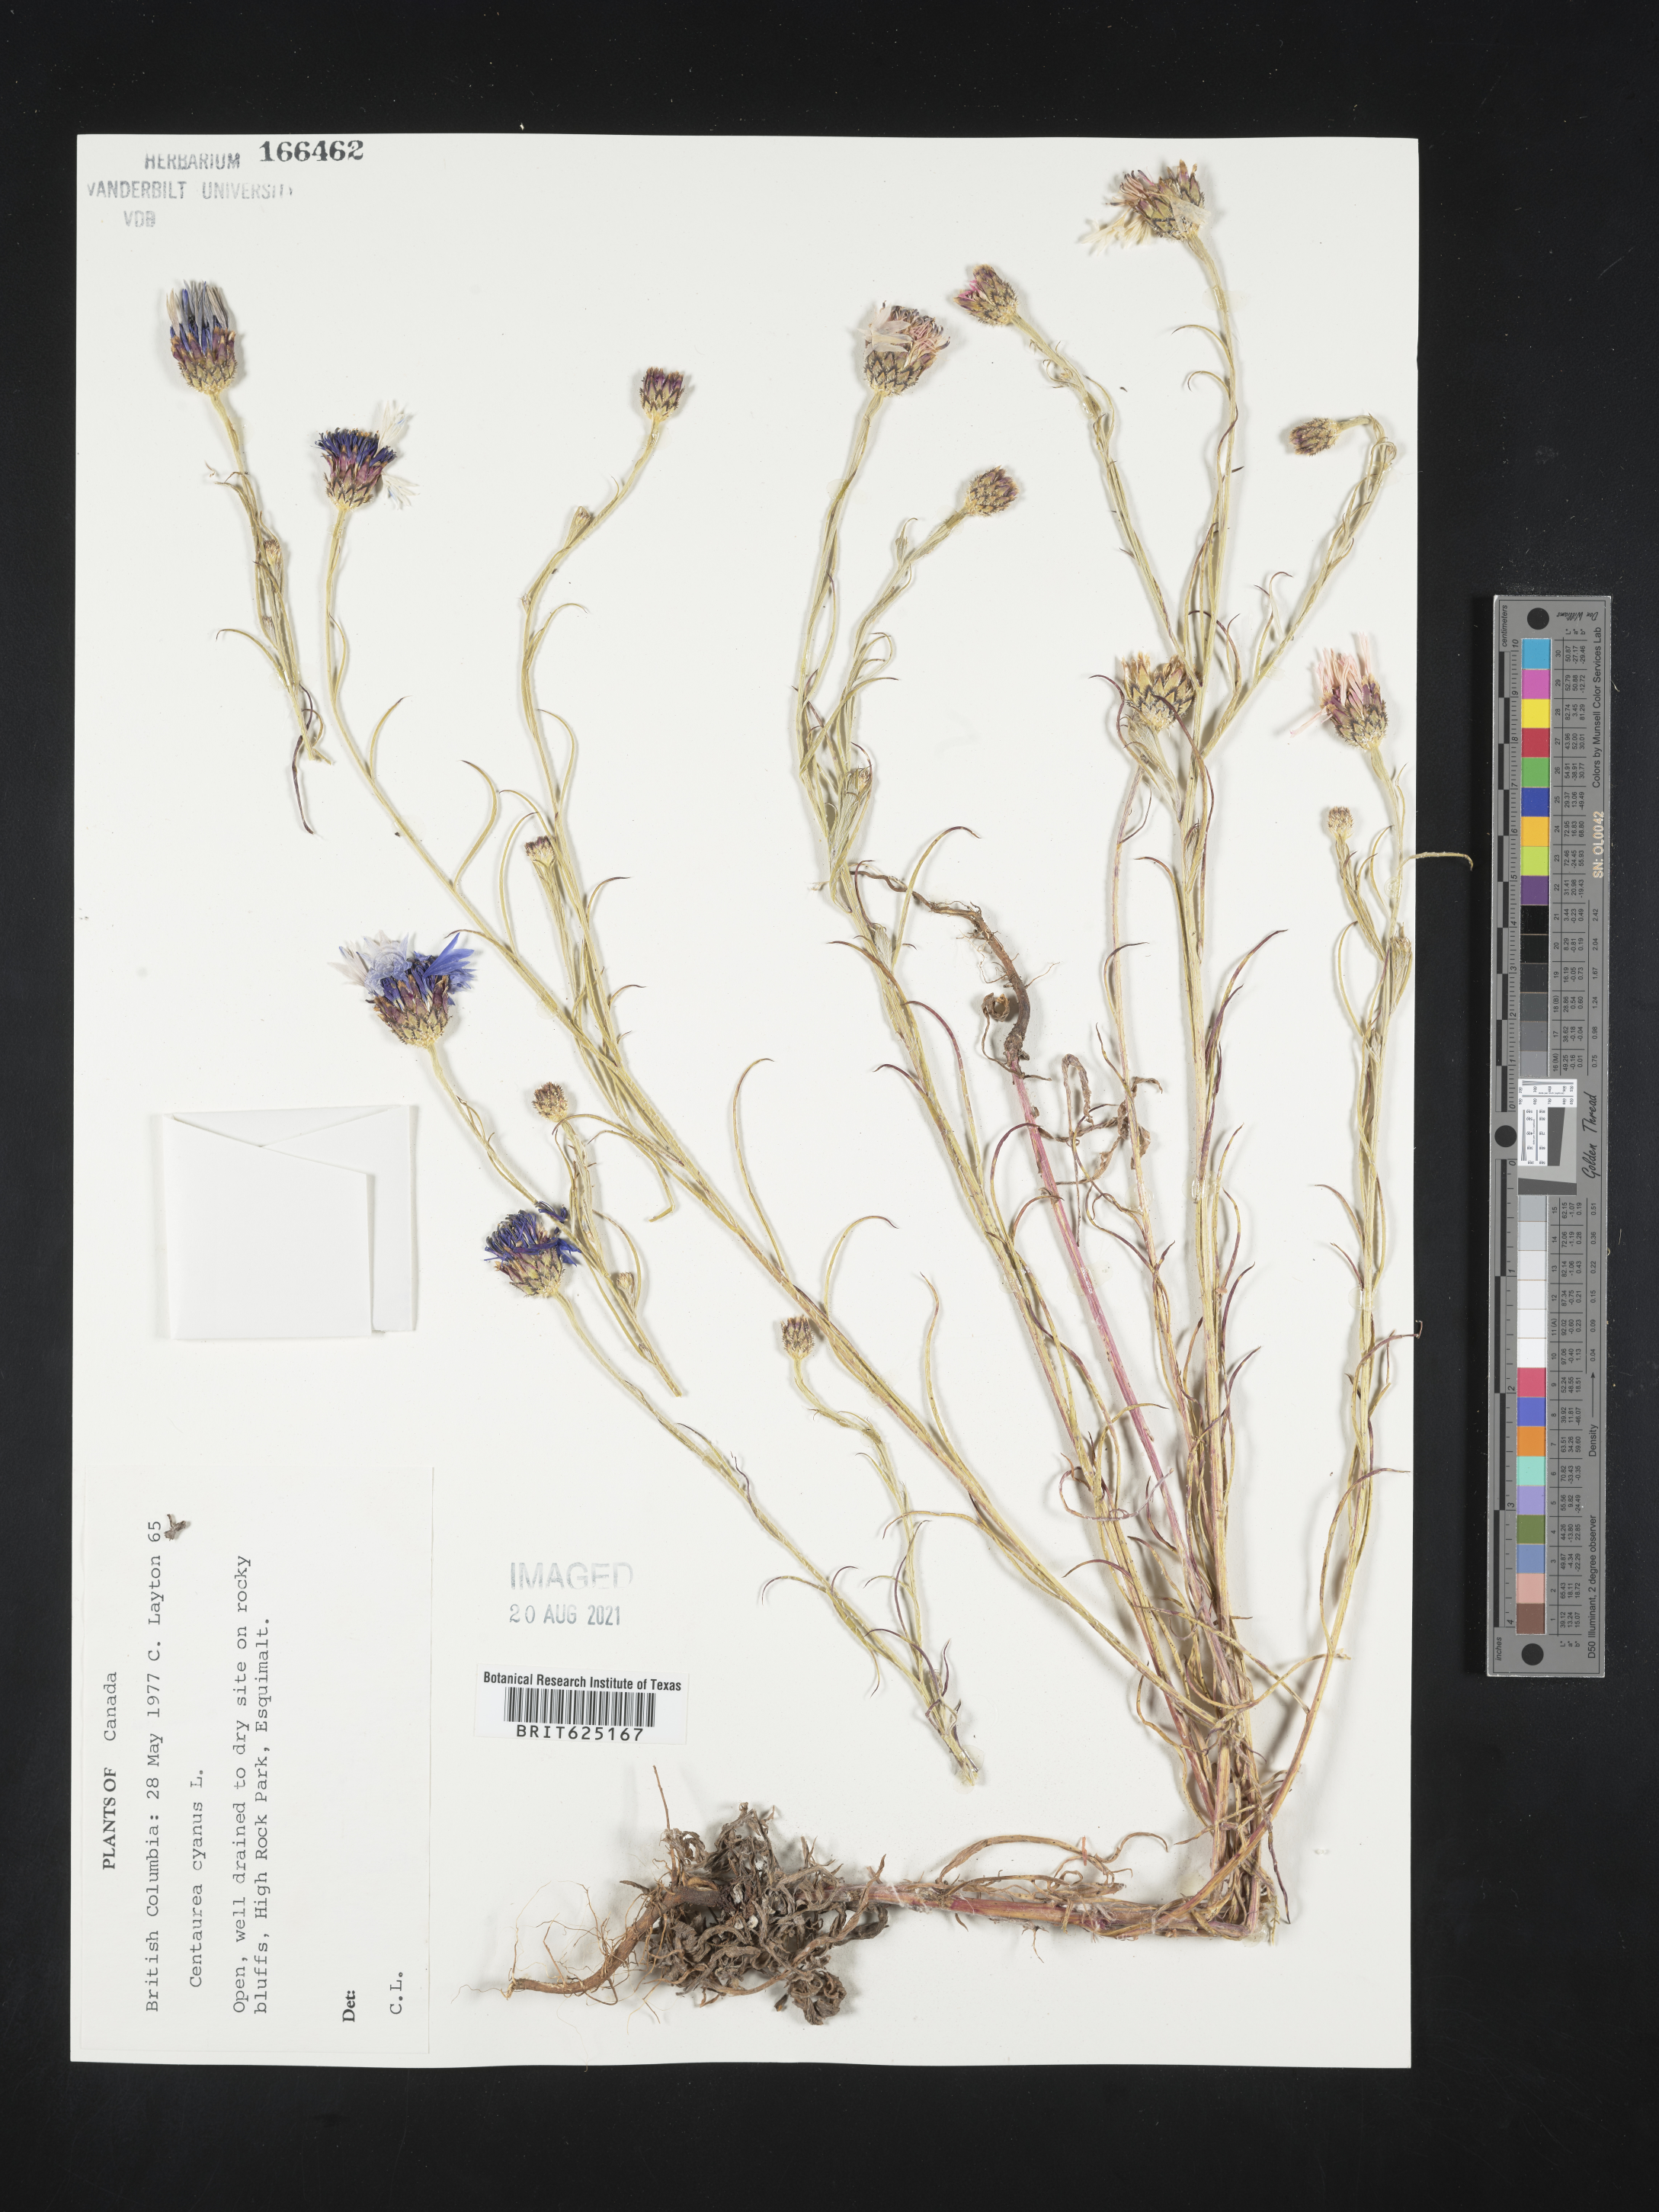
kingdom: Plantae
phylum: Tracheophyta
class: Magnoliopsida
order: Asterales
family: Asteraceae
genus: Centaurea
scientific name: Centaurea cyanus
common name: Cornflower
